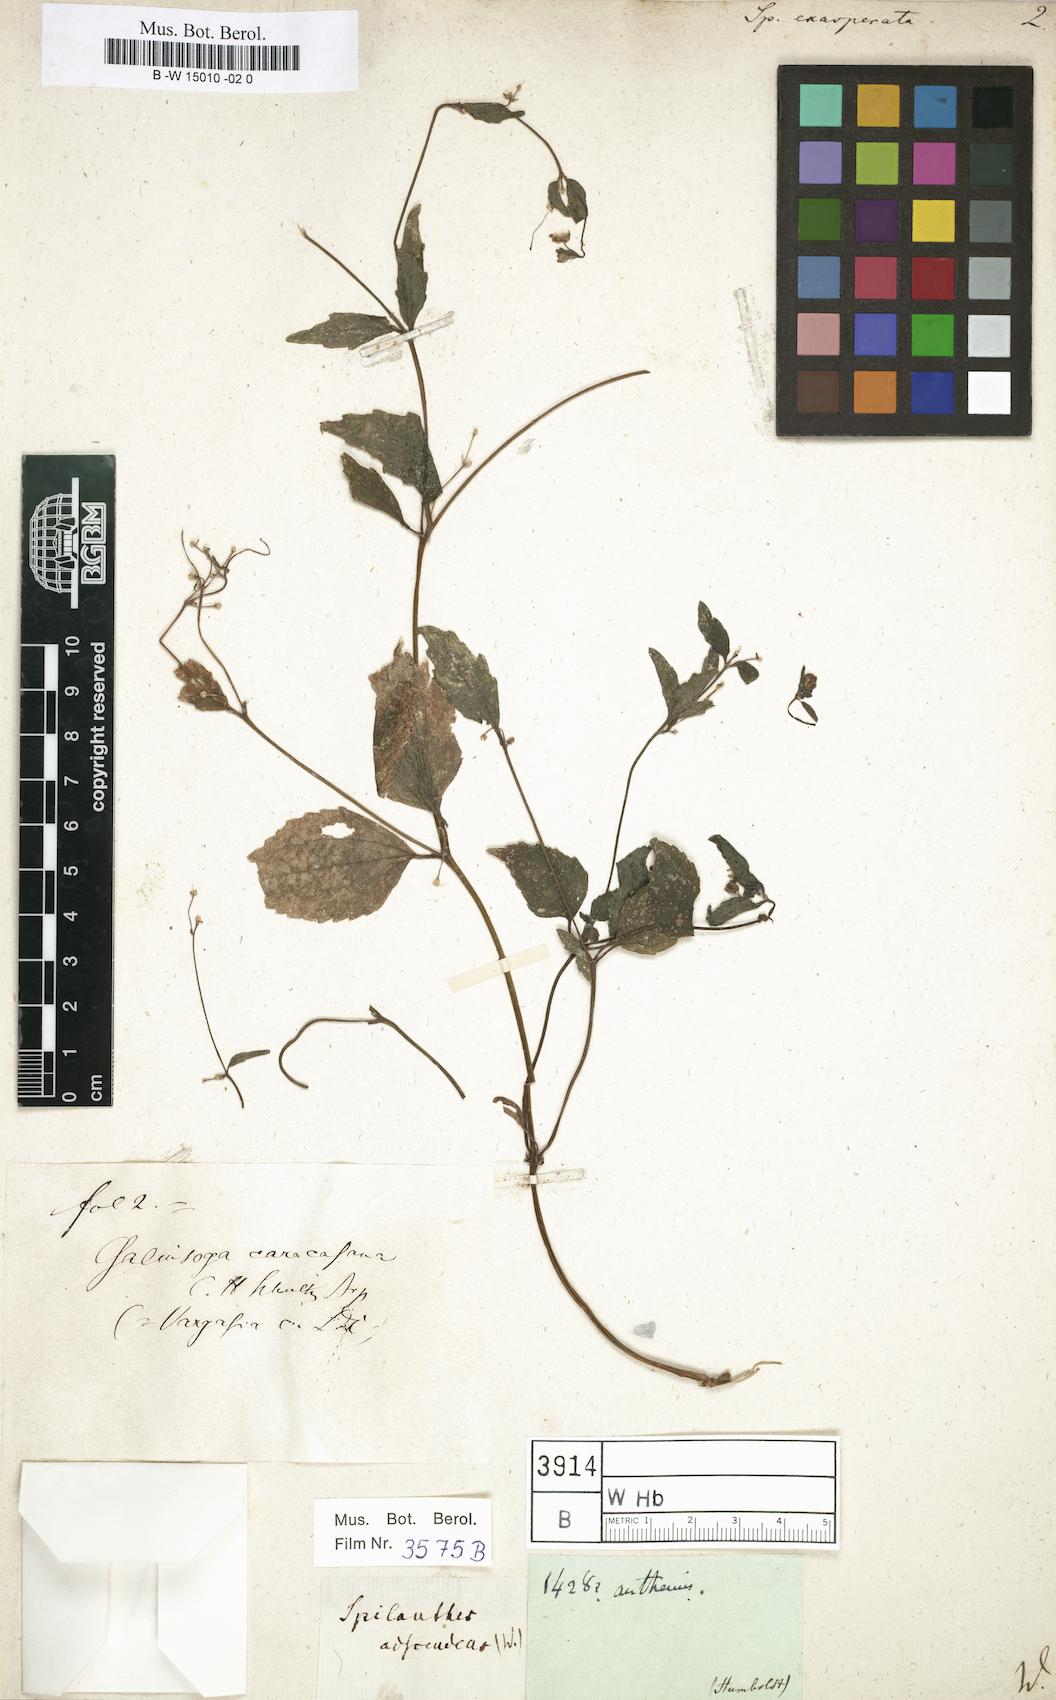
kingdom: Plantae
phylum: Tracheophyta
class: Magnoliopsida
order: Asterales
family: Asteraceae
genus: Acmella
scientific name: Acmella alba
